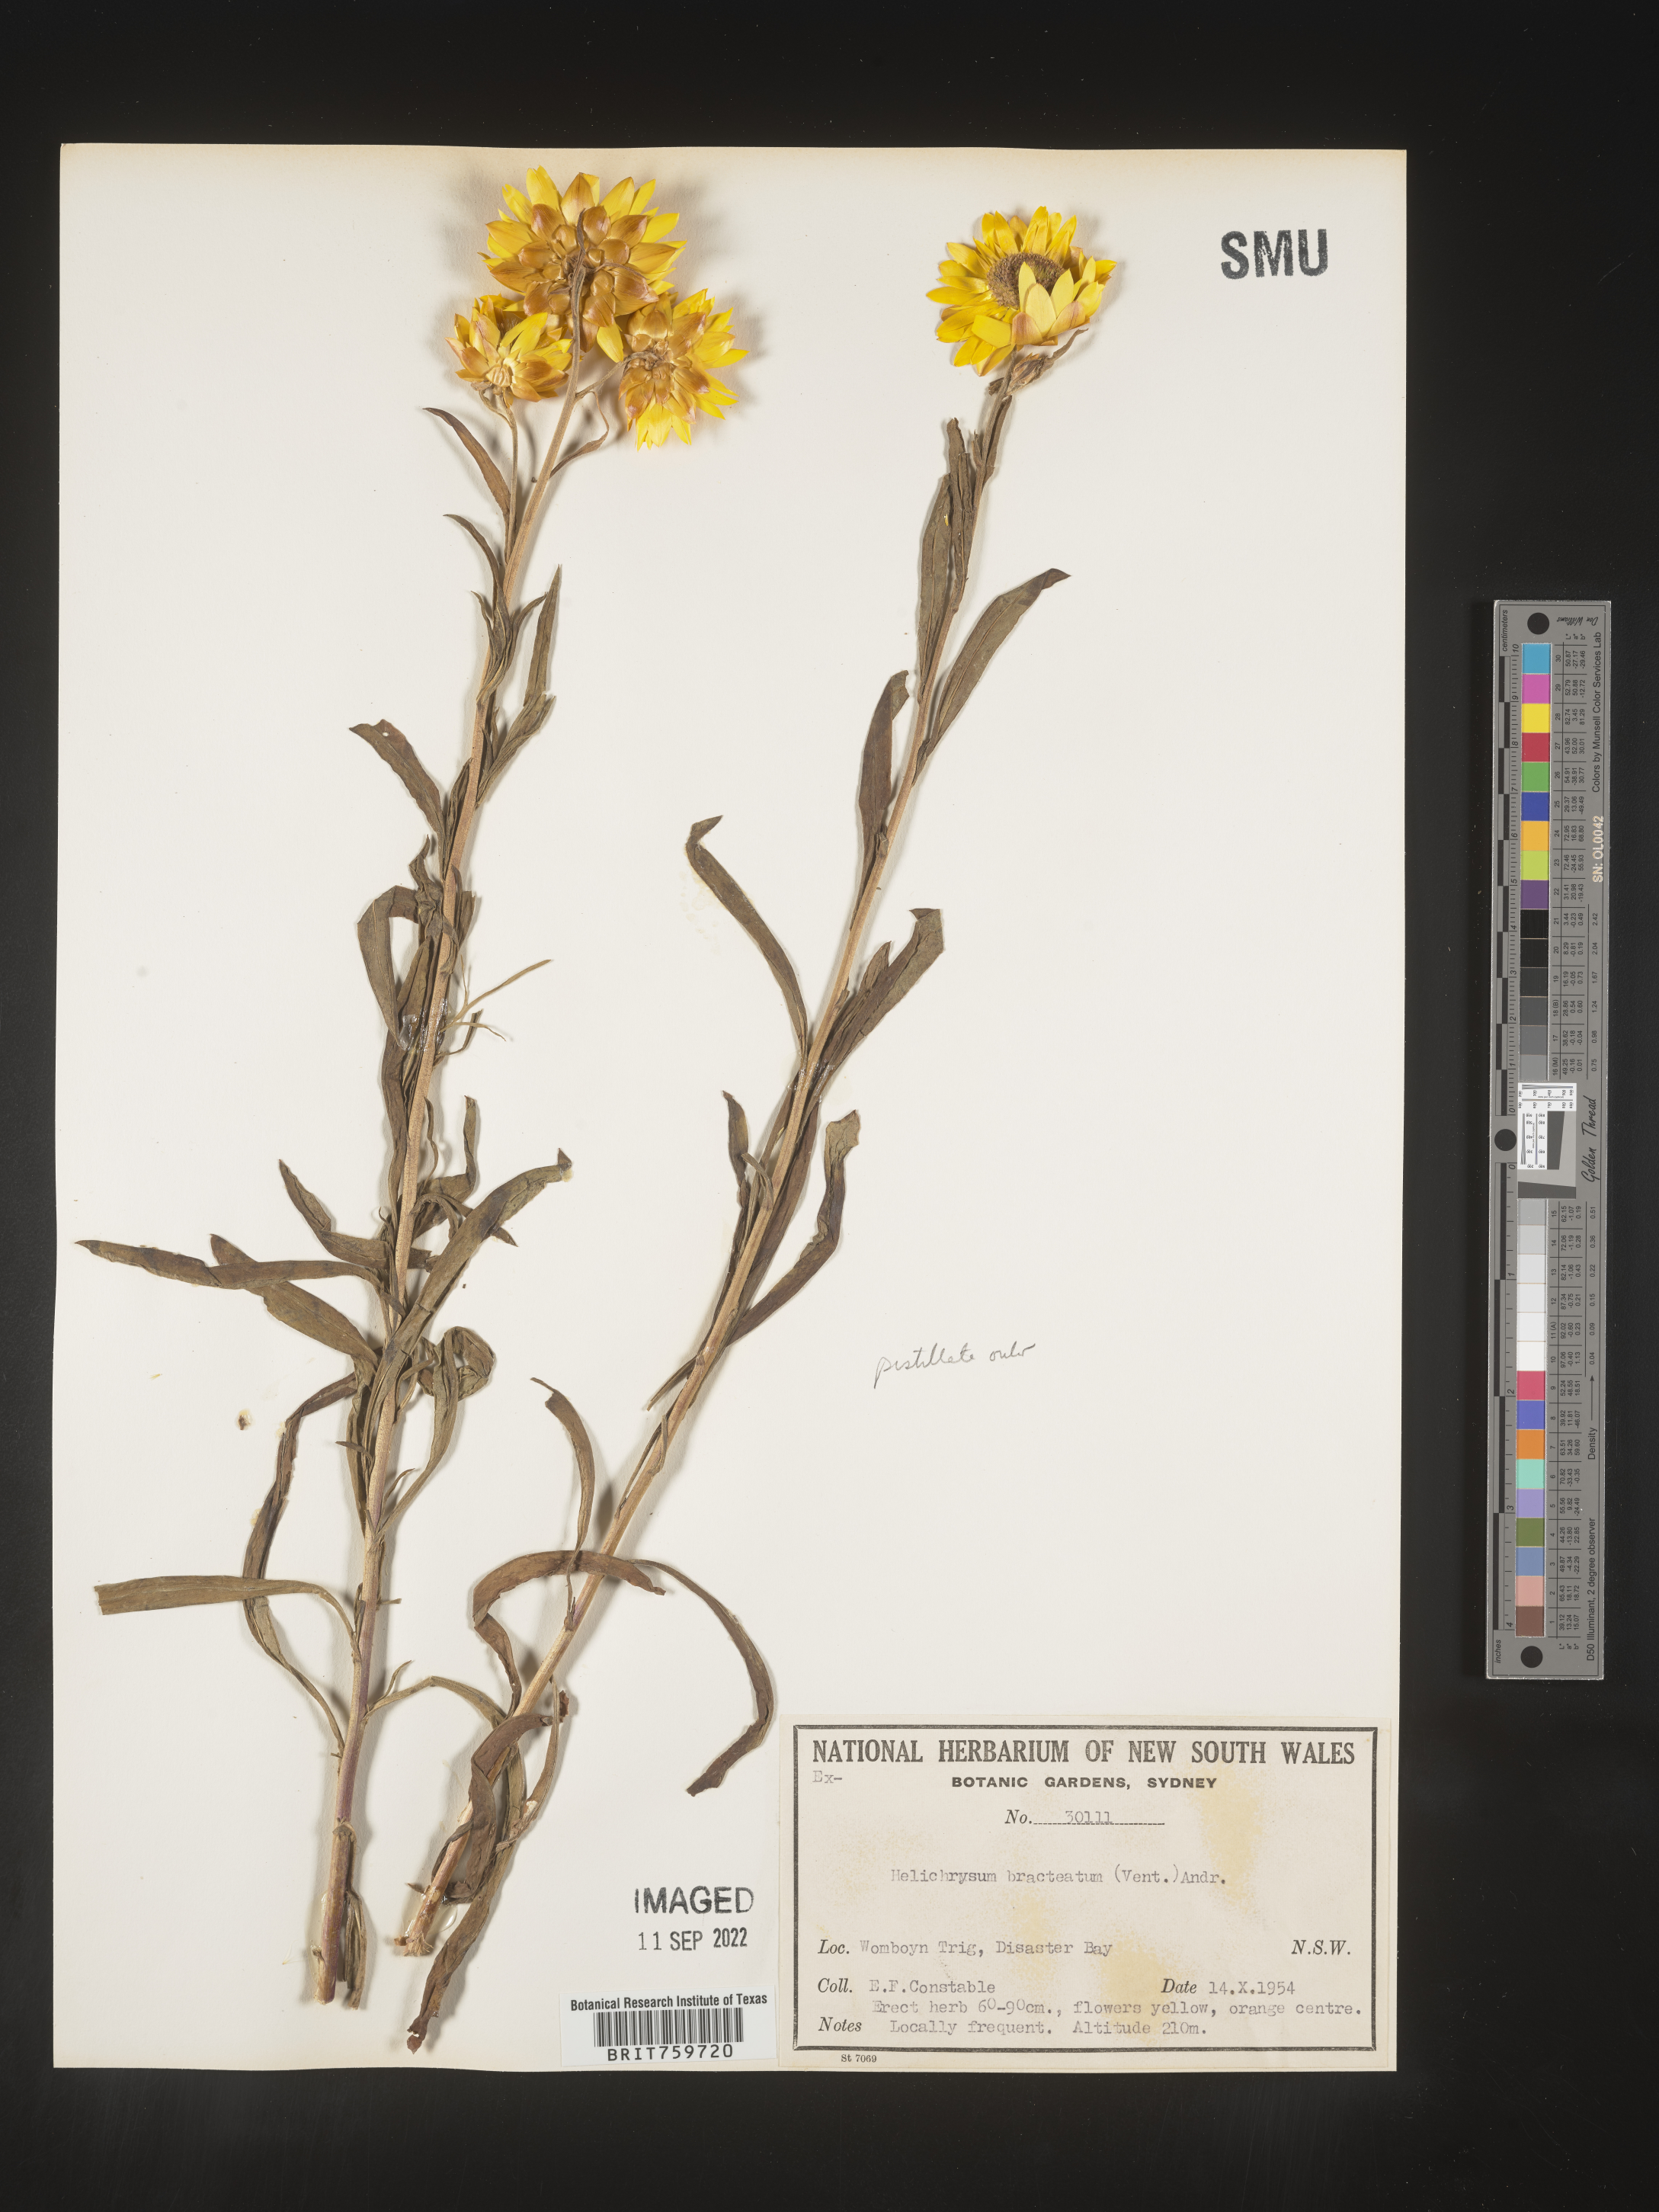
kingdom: Plantae
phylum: Tracheophyta
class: Magnoliopsida
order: Asterales
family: Asteraceae
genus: Helichrysum
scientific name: Helichrysum
